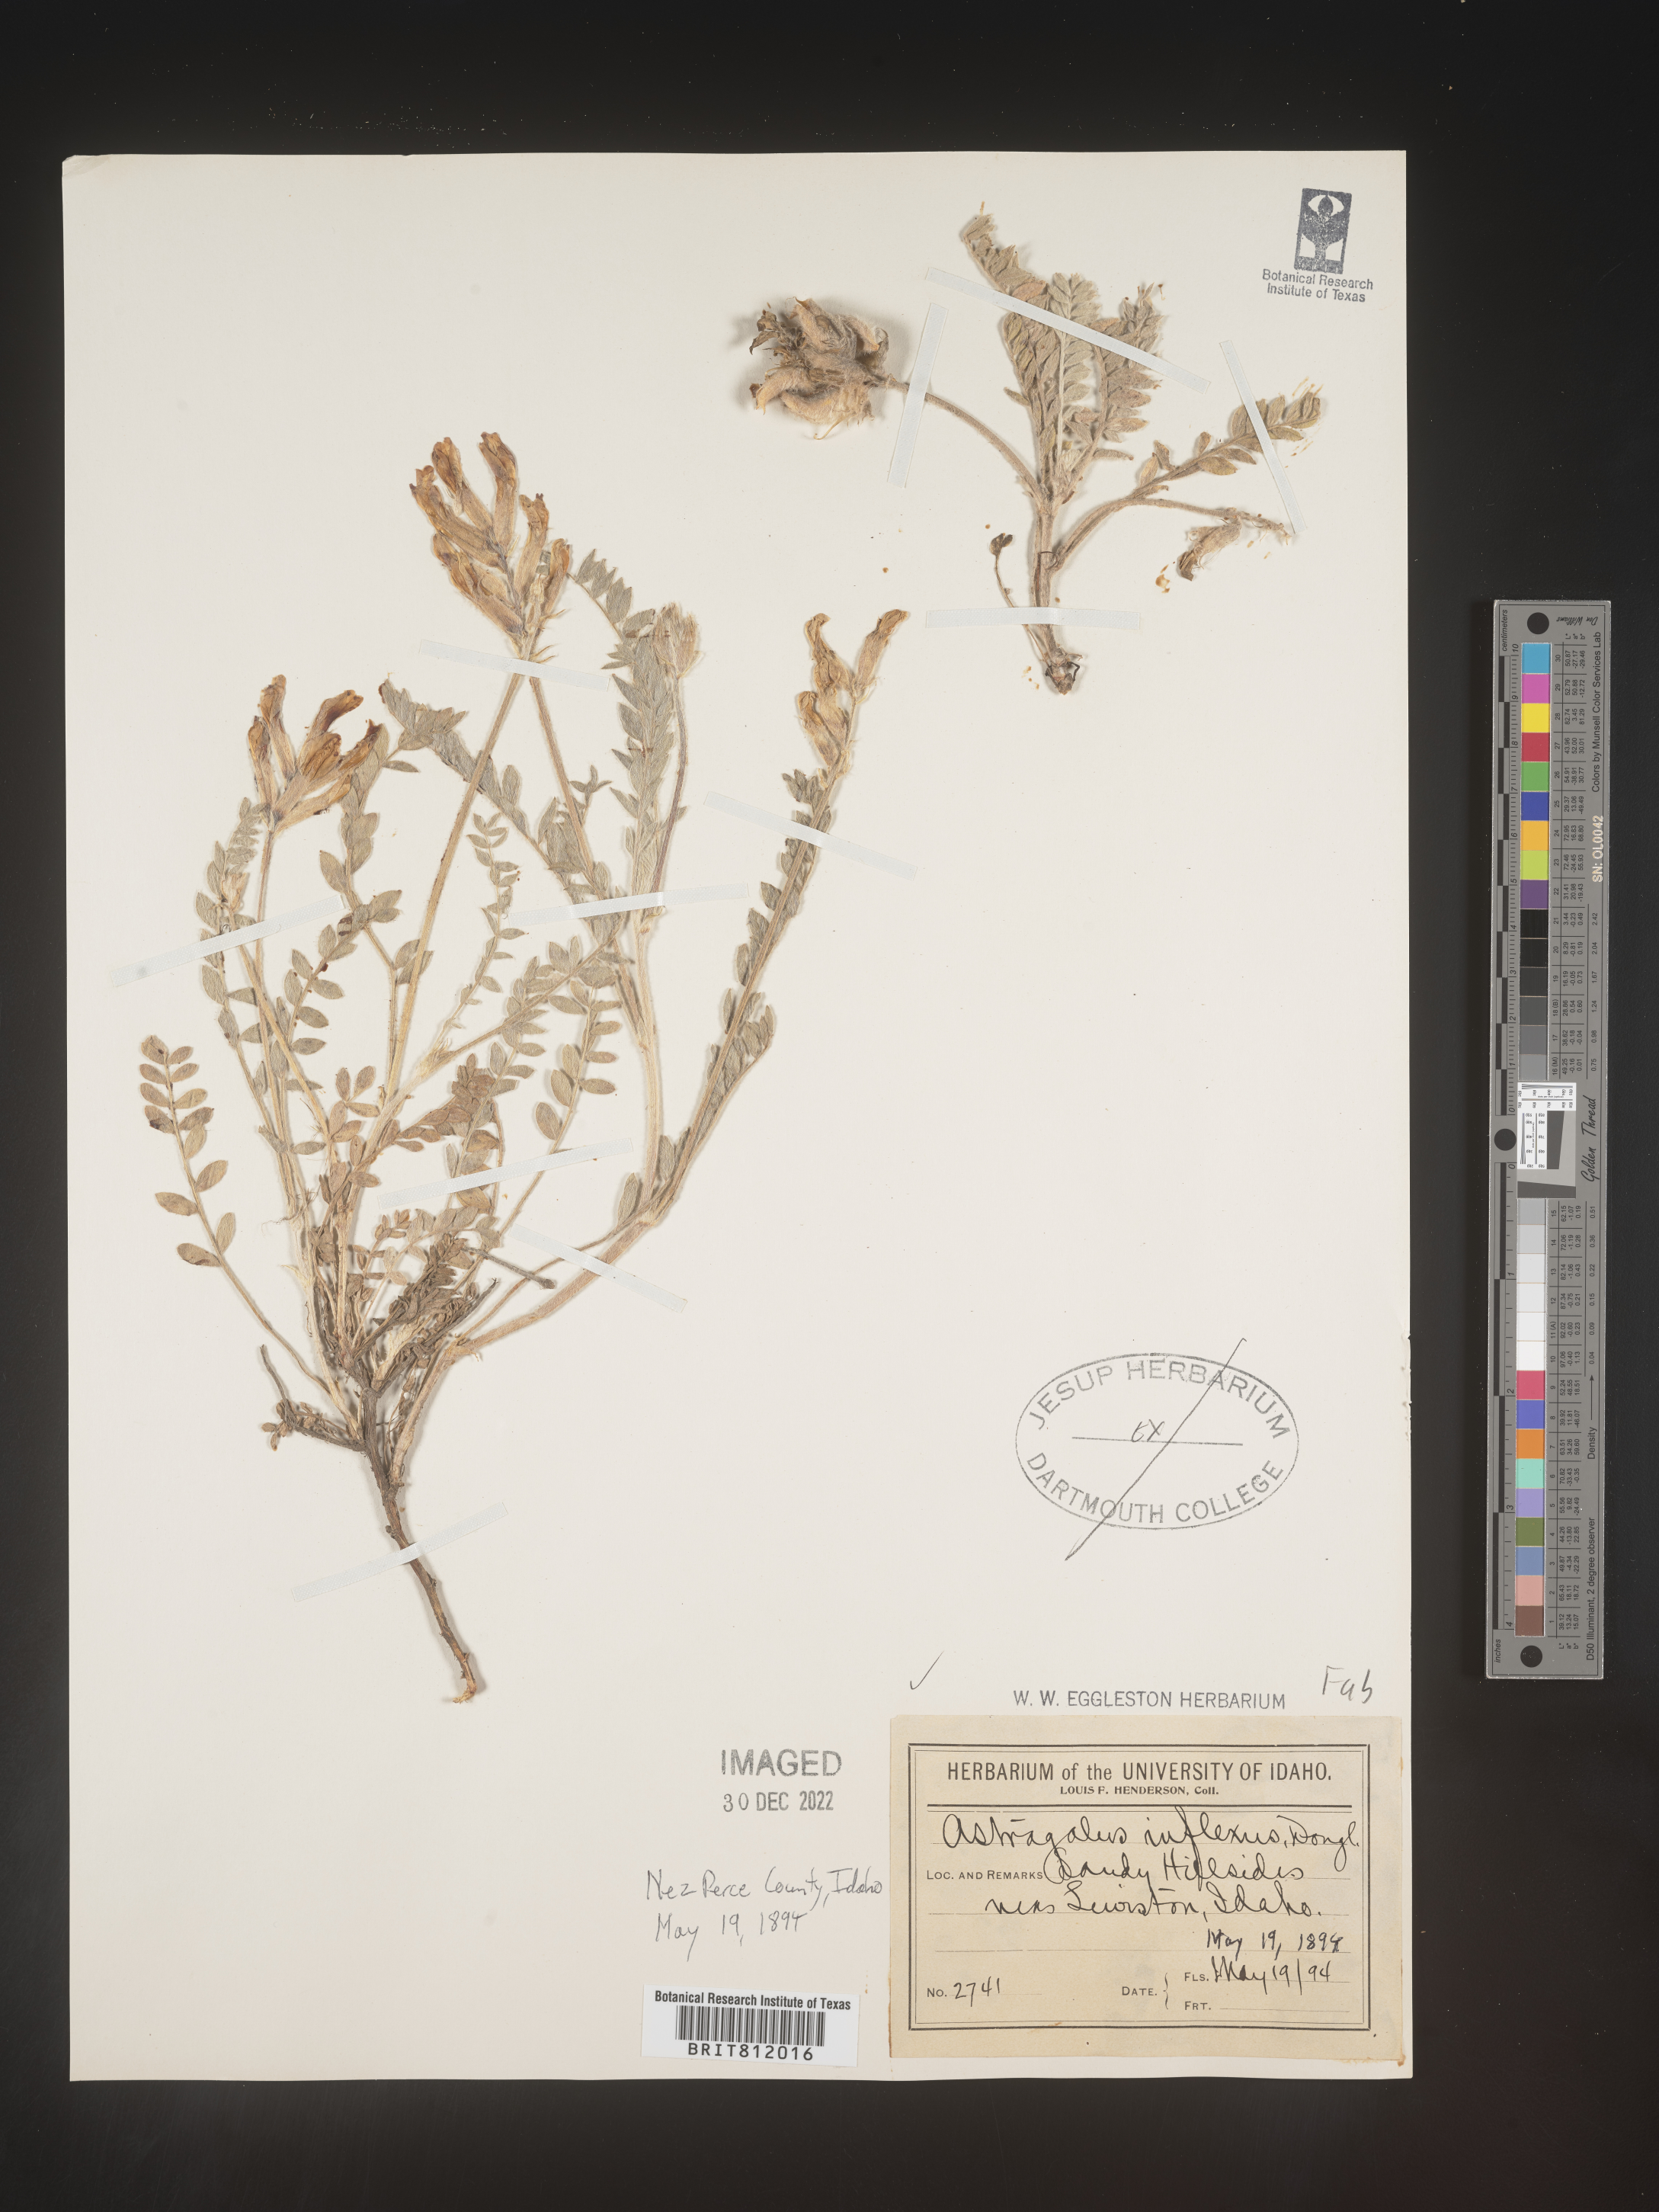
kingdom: Plantae
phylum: Tracheophyta
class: Magnoliopsida
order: Fabales
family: Fabaceae
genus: Astragalus
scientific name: Astragalus inflexus
